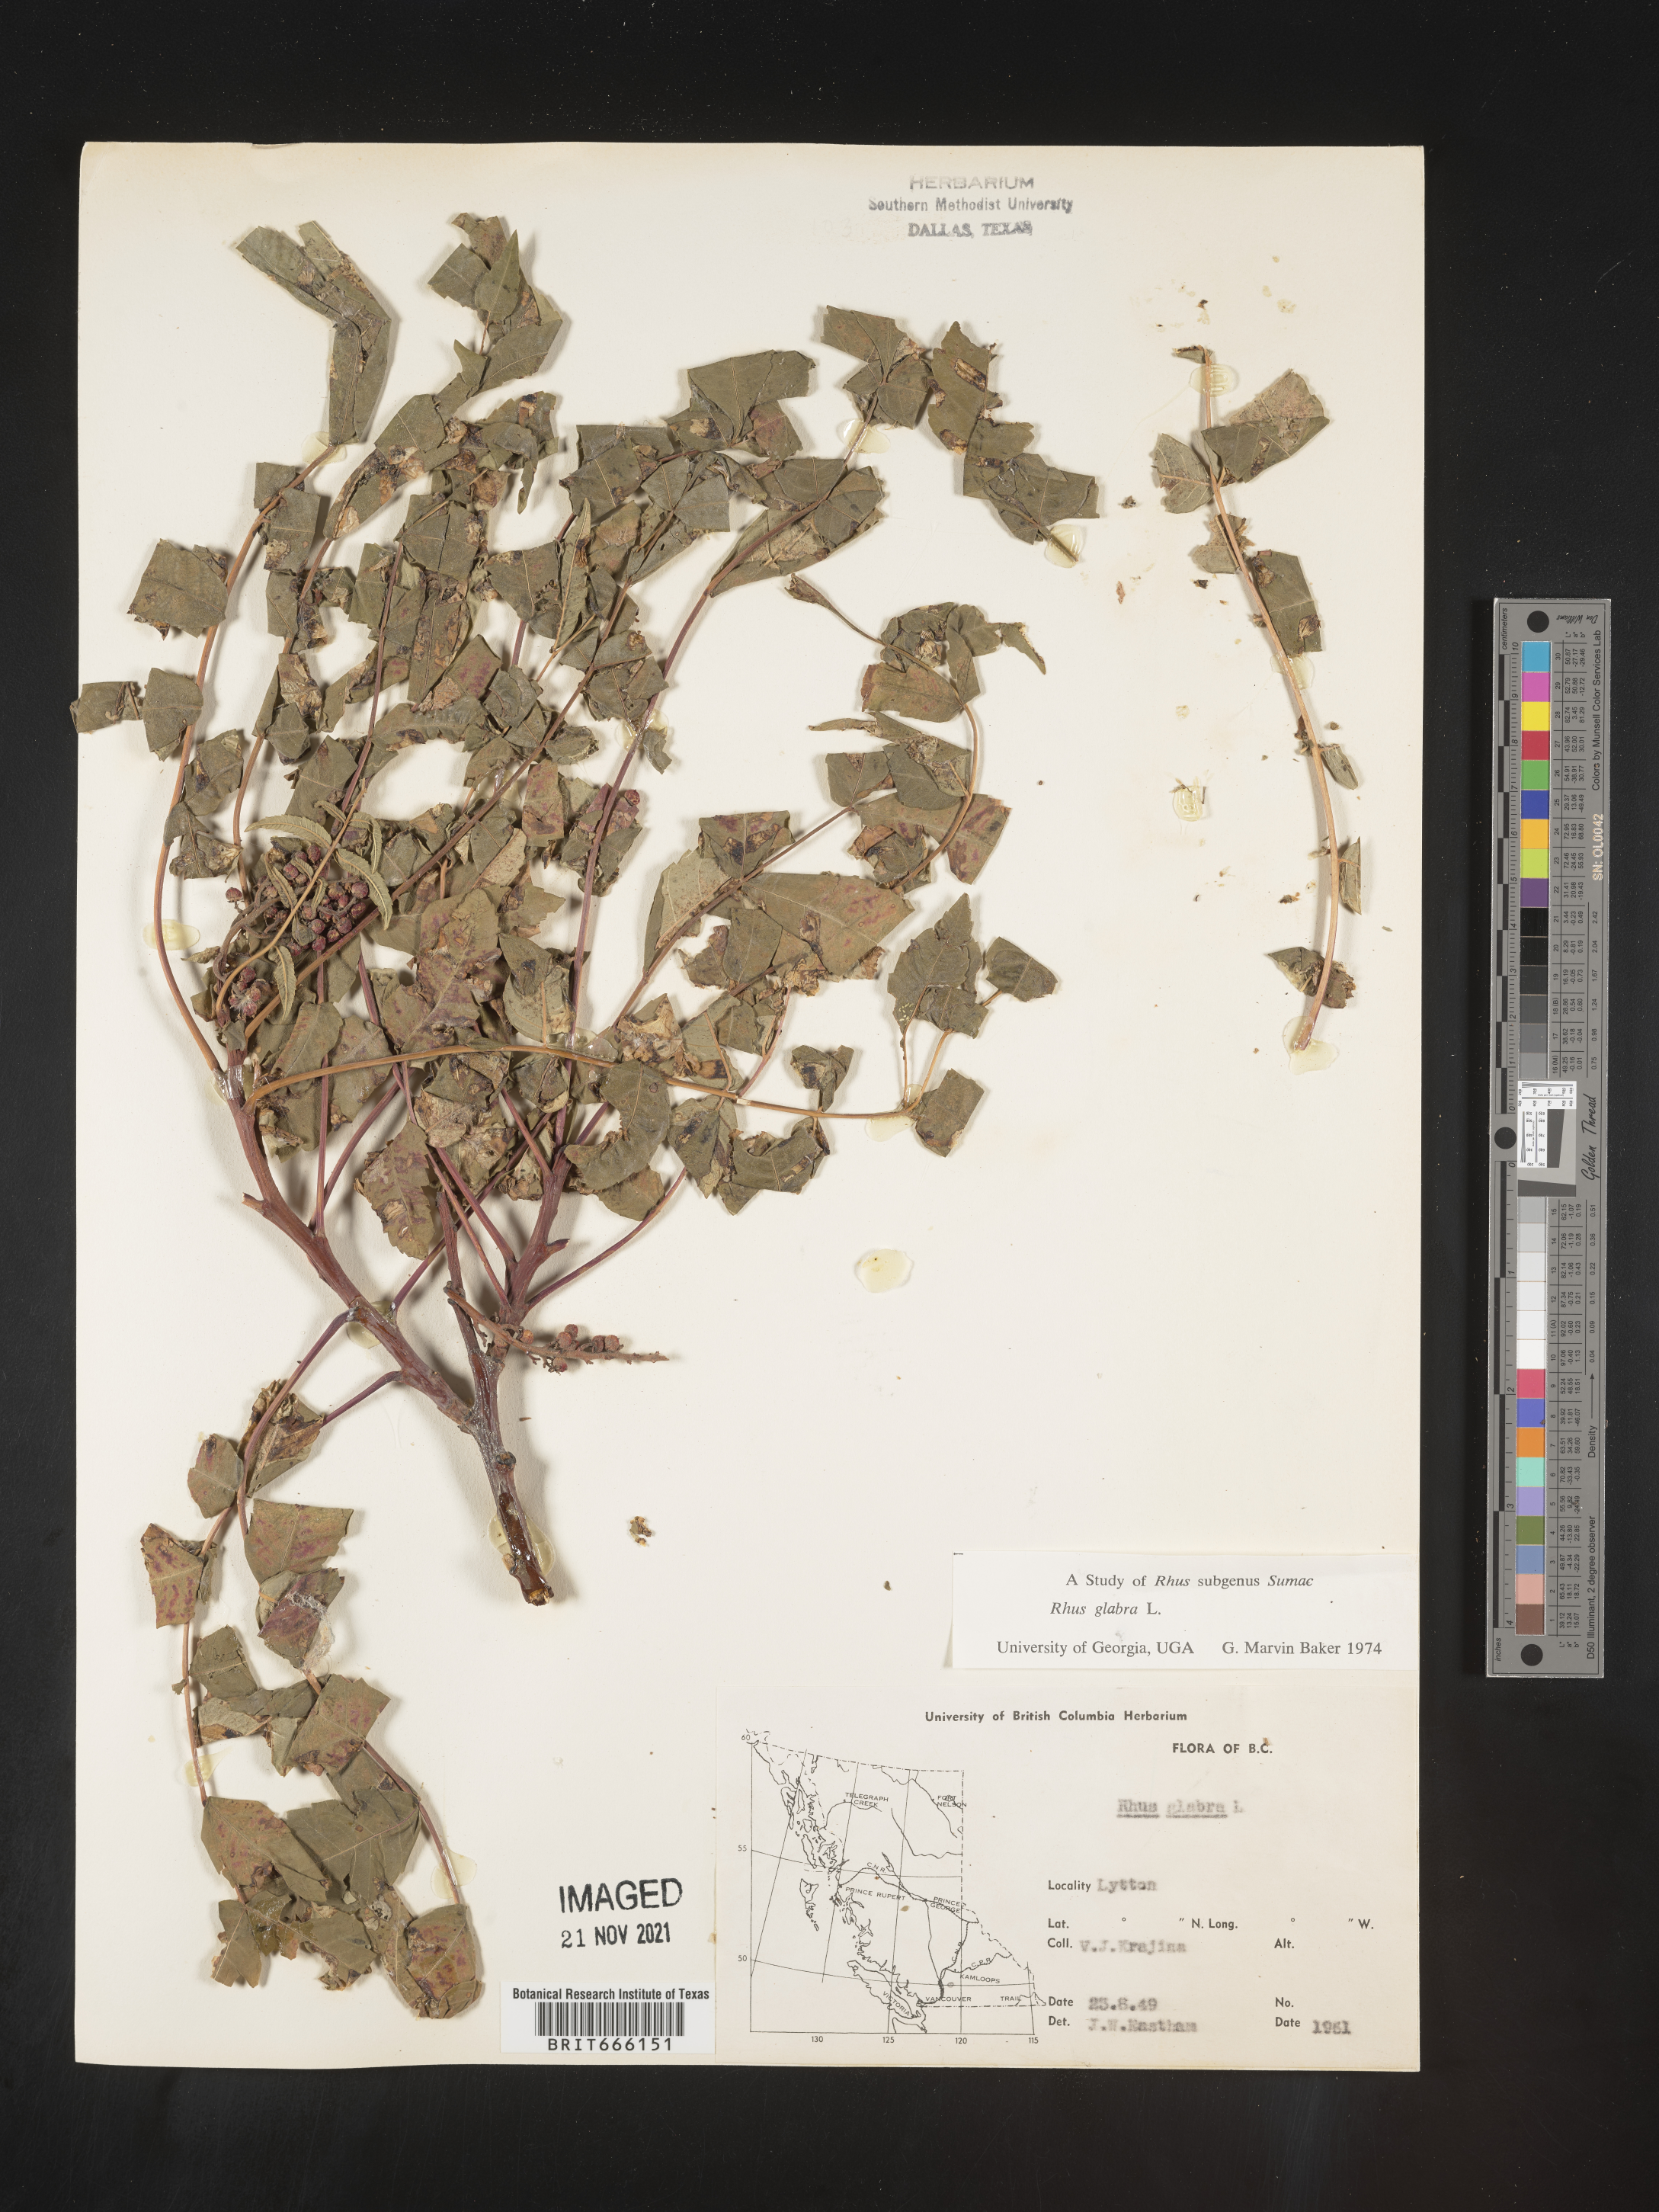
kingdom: Plantae
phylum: Tracheophyta
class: Magnoliopsida
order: Sapindales
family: Anacardiaceae
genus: Rhus
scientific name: Rhus glabra
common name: Scarlet sumac
